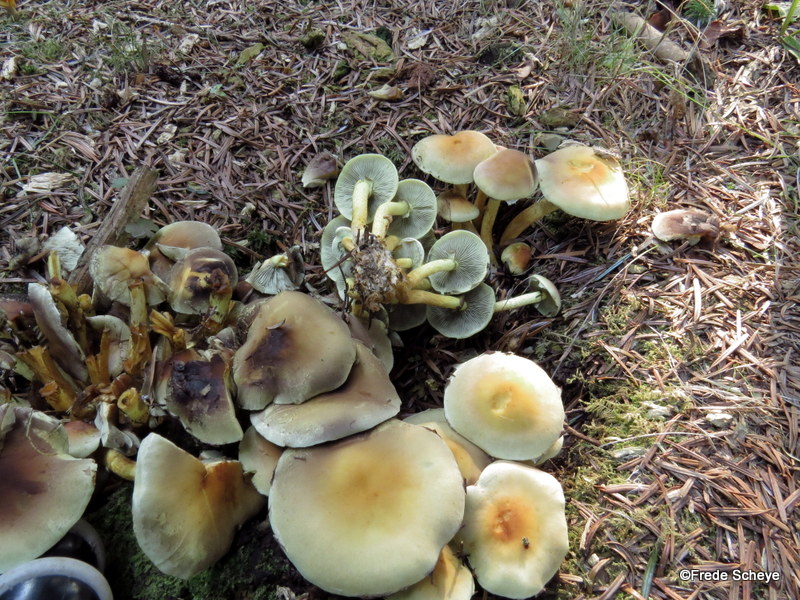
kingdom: Fungi
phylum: Basidiomycota
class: Agaricomycetes
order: Agaricales
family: Strophariaceae
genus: Hypholoma
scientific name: Hypholoma fasciculare
